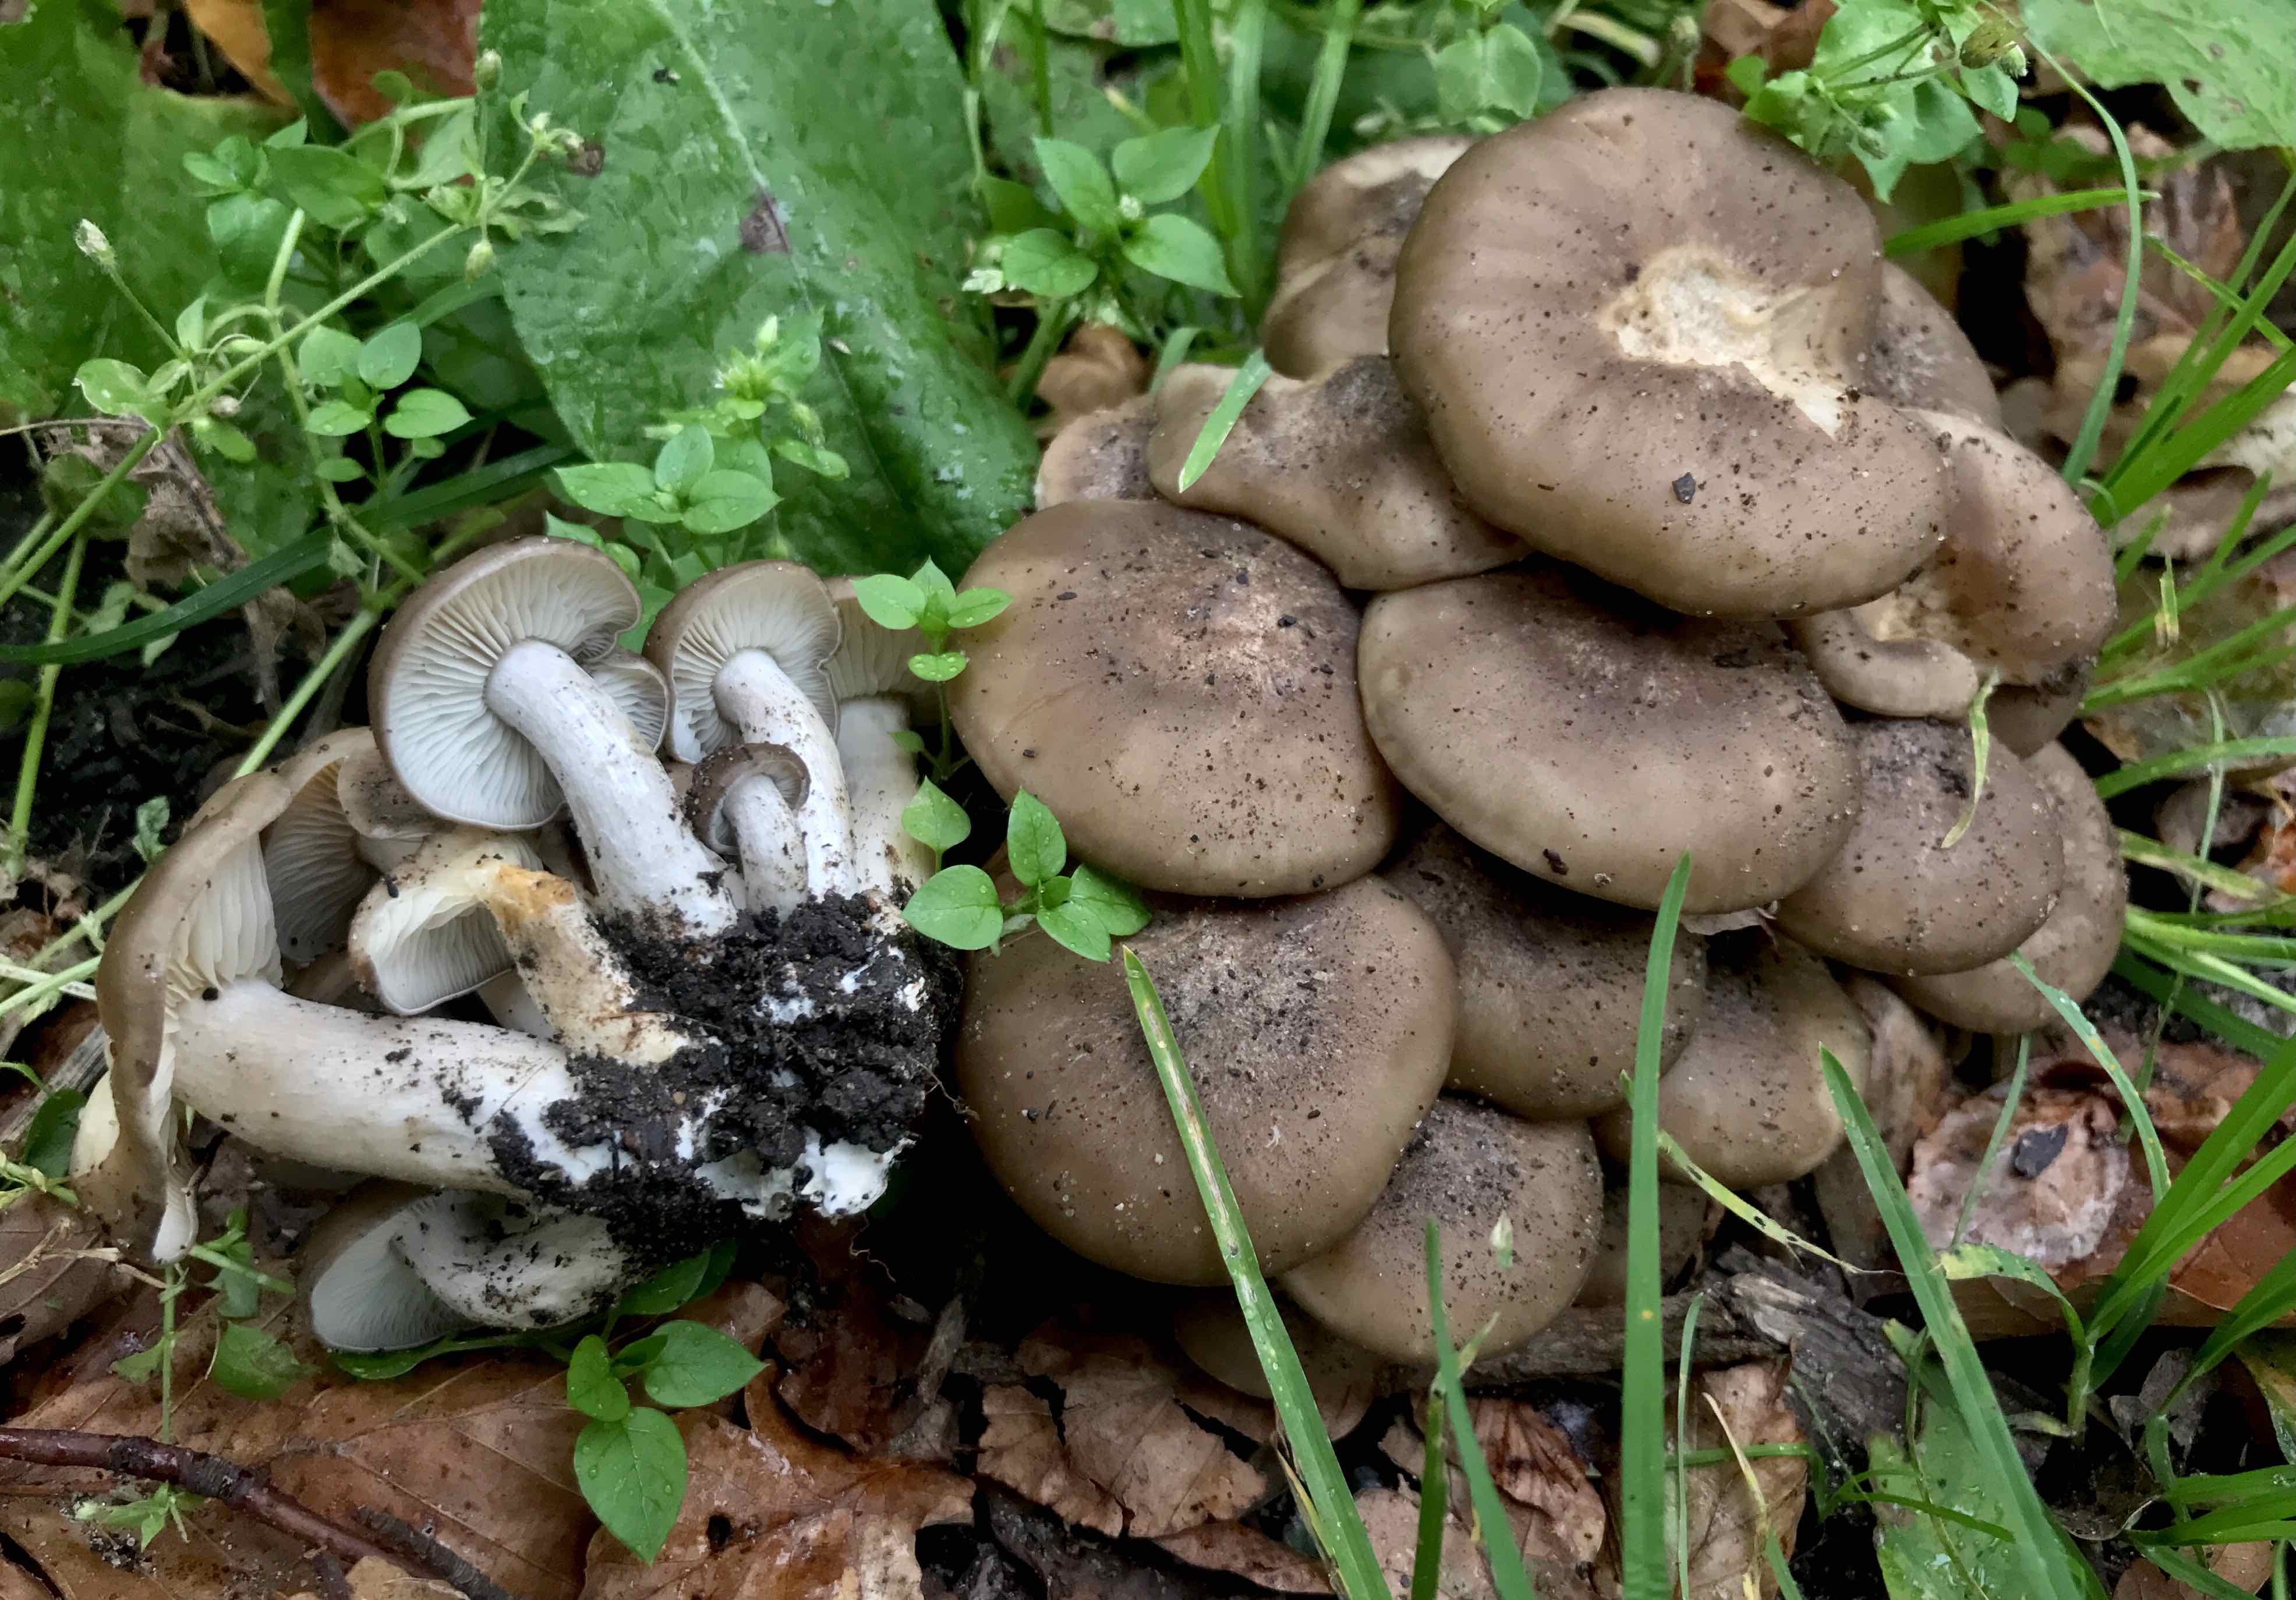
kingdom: Fungi
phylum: Basidiomycota
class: Agaricomycetes
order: Agaricales
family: Lyophyllaceae
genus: Lyophyllum
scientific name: Lyophyllum decastes
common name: røggrå gråblad
